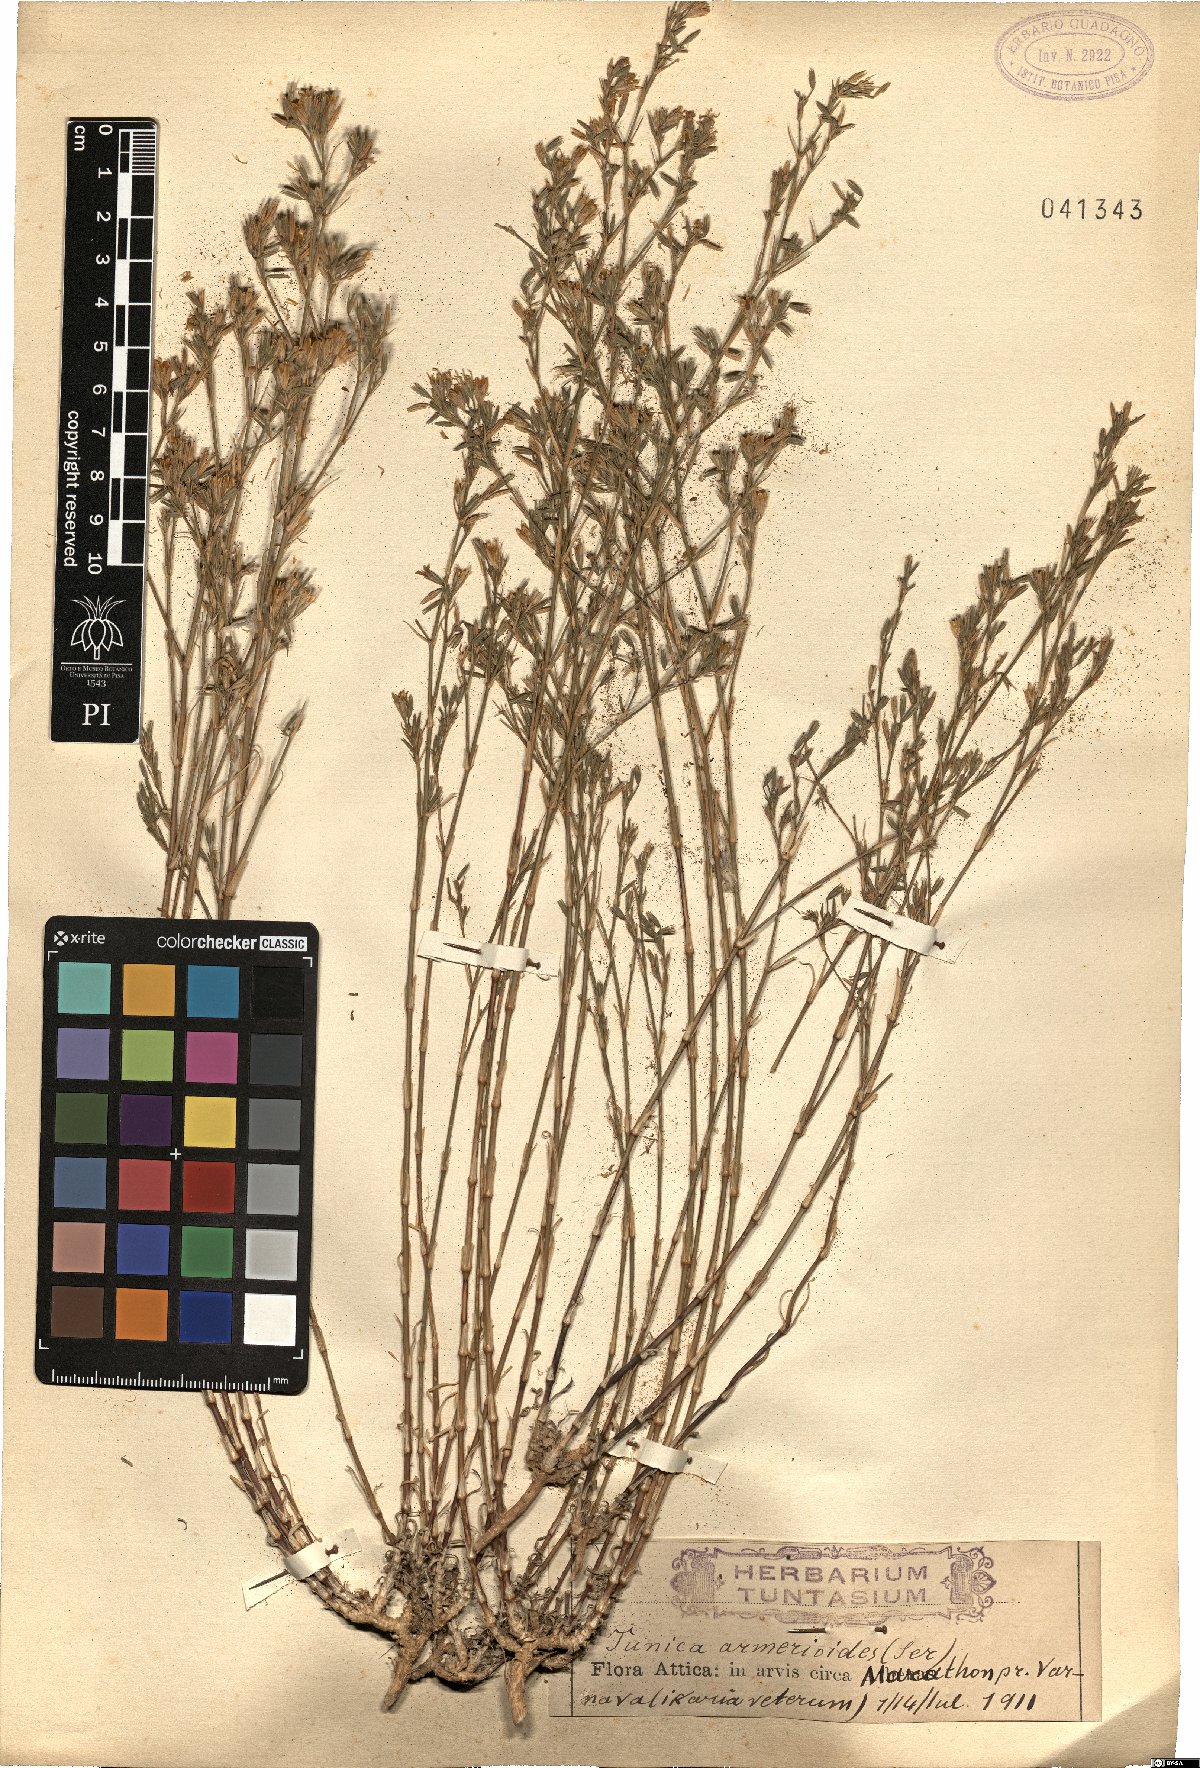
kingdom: Plantae
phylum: Tracheophyta
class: Magnoliopsida
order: Caryophyllales
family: Caryophyllaceae
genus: Dianthus
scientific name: Dianthus tunicoides
